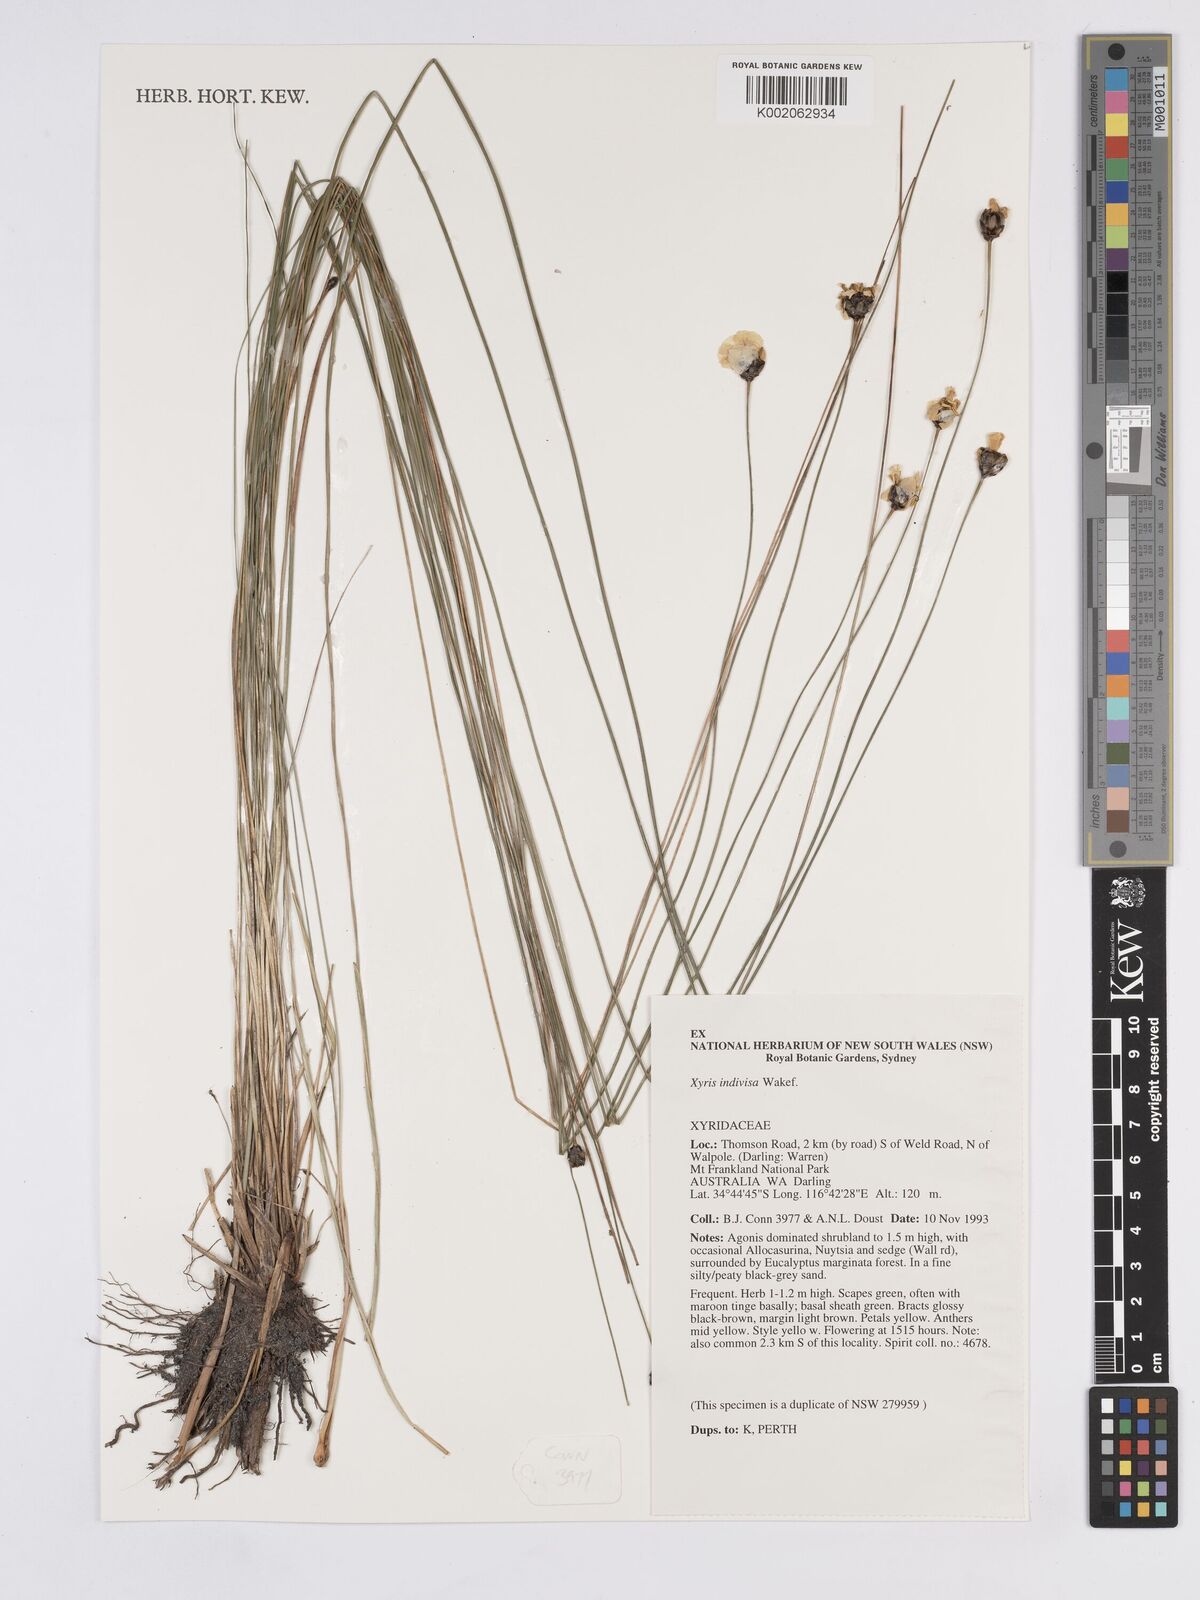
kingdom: Plantae
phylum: Tracheophyta
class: Liliopsida
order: Poales
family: Xyridaceae
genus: Xyris
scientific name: Xyris indivisa
